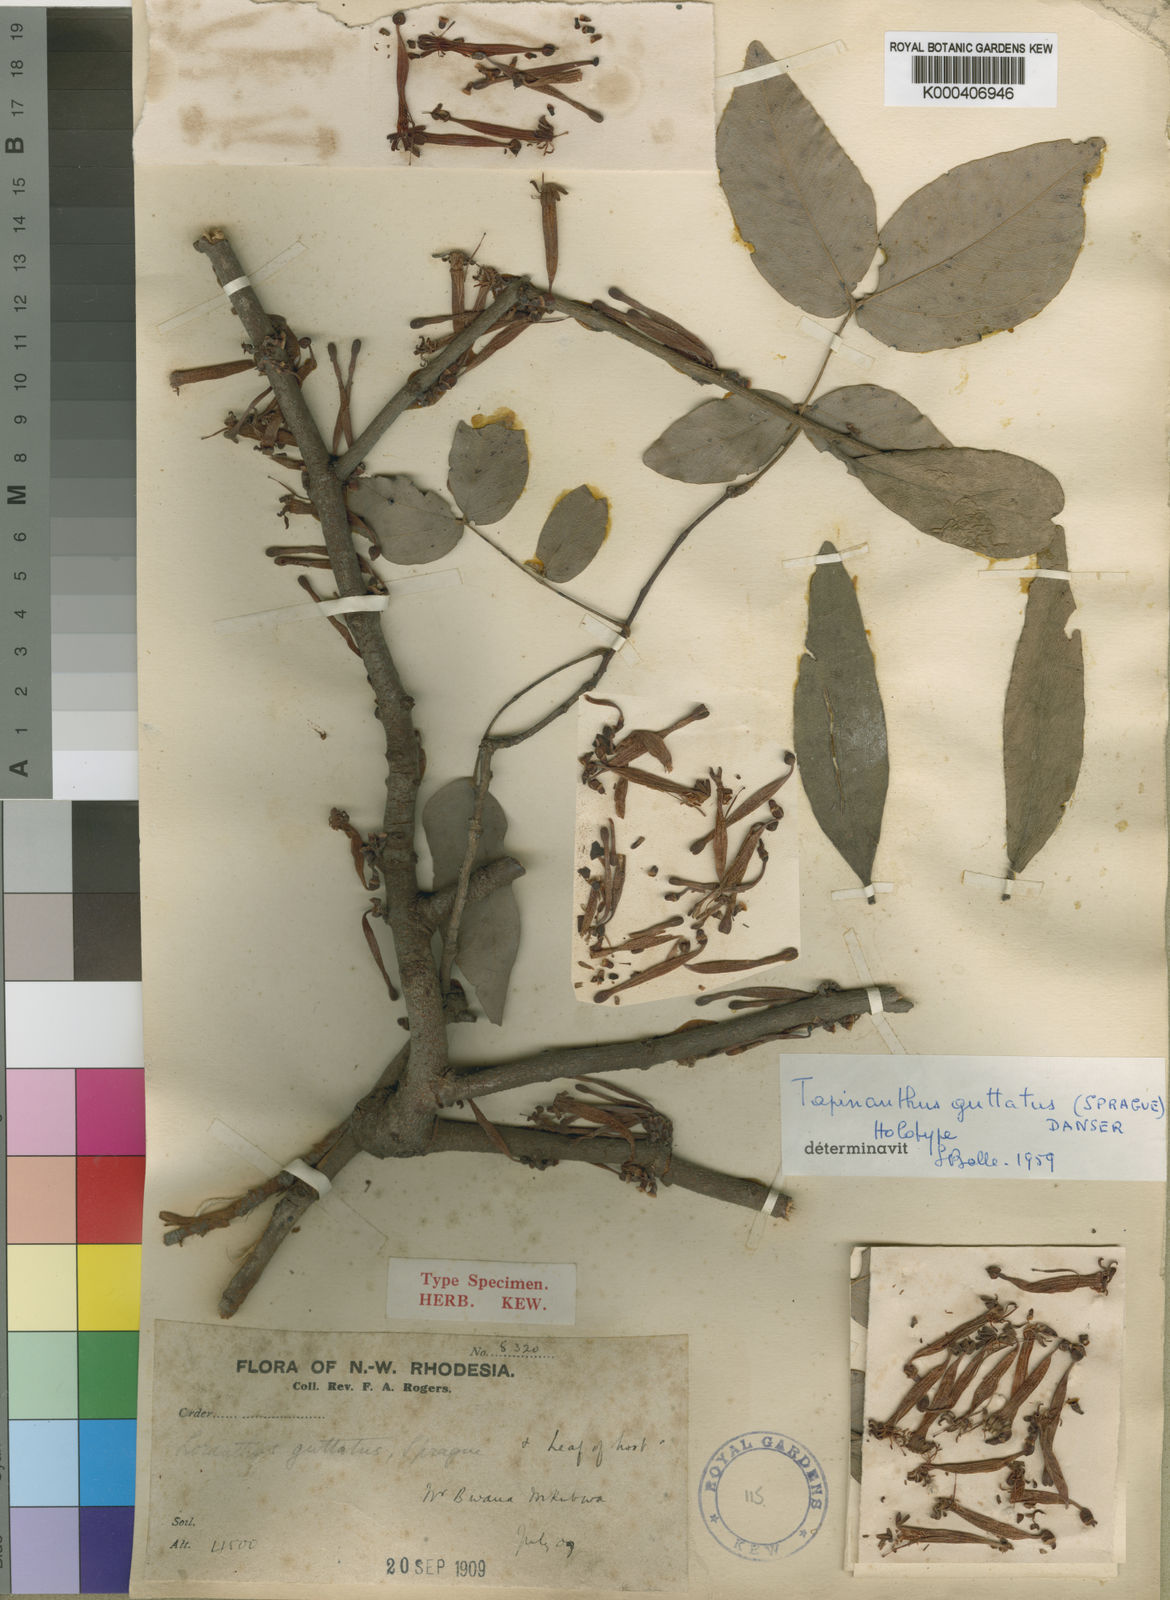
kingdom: Plantae
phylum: Tracheophyta
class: Magnoliopsida
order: Santalales
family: Loranthaceae
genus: Tapinanthus
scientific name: Tapinanthus dependens
